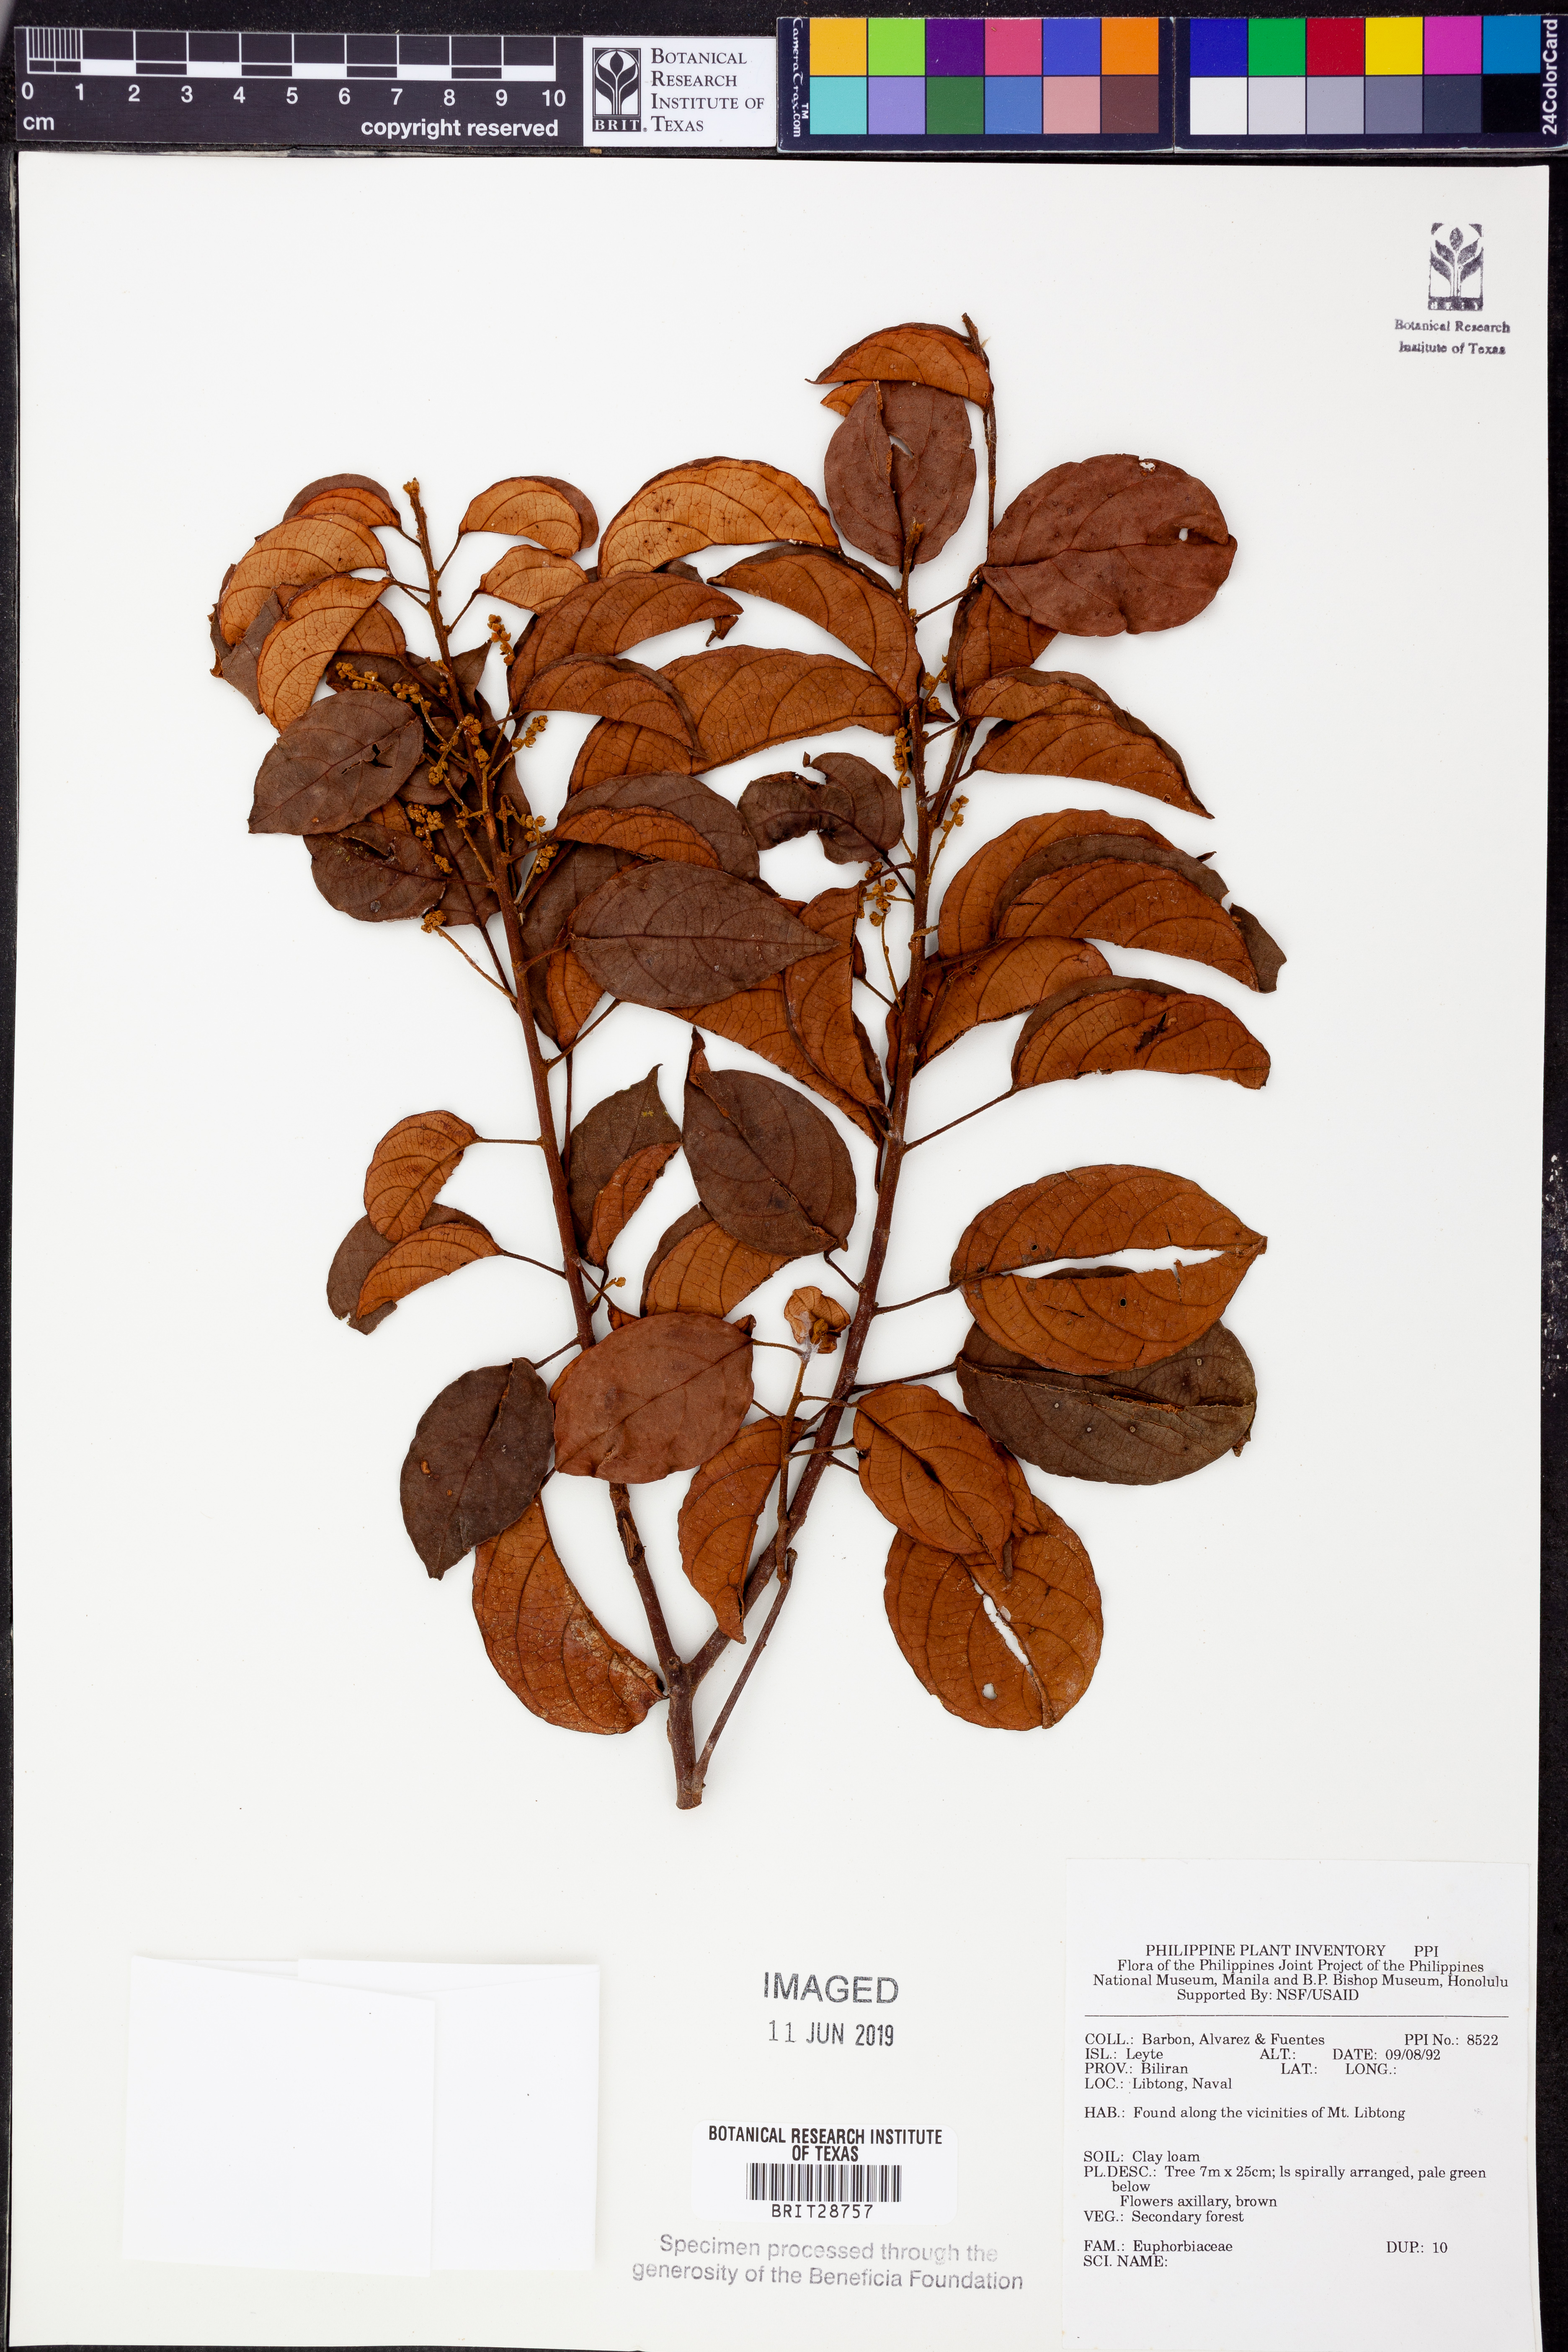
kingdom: Plantae
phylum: Tracheophyta
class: Magnoliopsida
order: Malpighiales
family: Euphorbiaceae
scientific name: Euphorbiaceae
